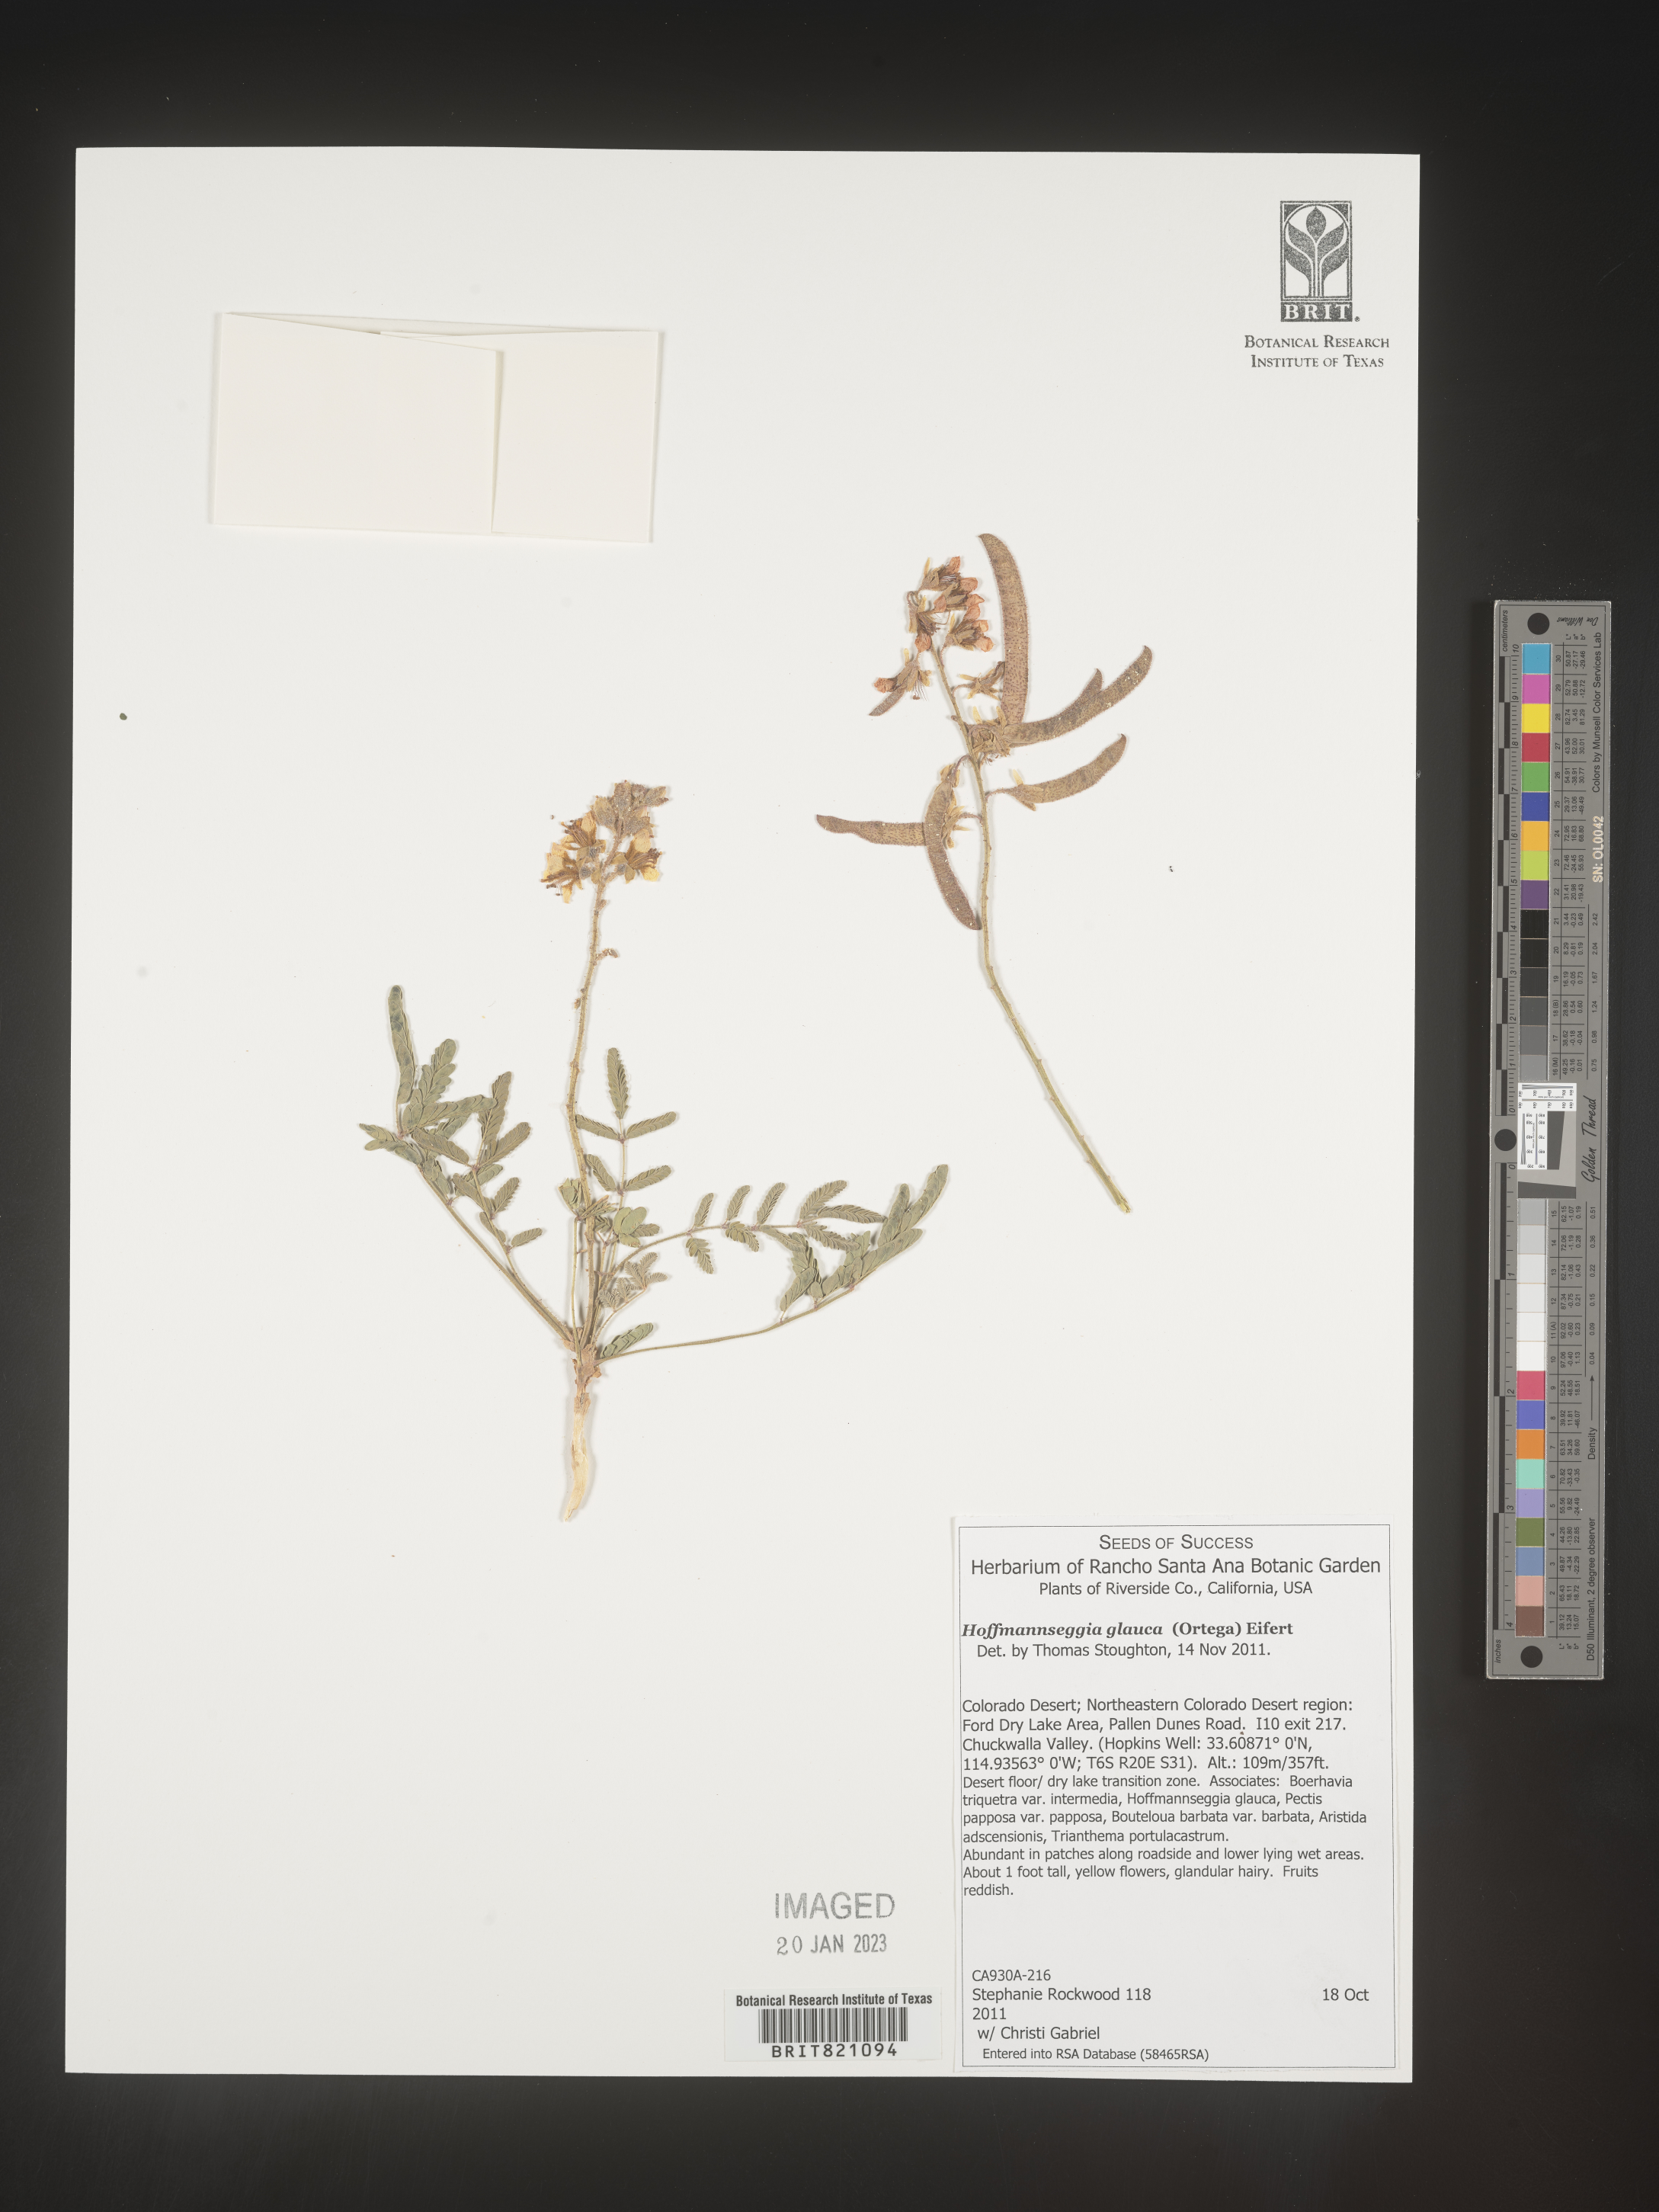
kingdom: Plantae
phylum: Tracheophyta
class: Magnoliopsida
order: Fabales
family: Fabaceae
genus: Hoffmannseggia
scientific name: Hoffmannseggia
